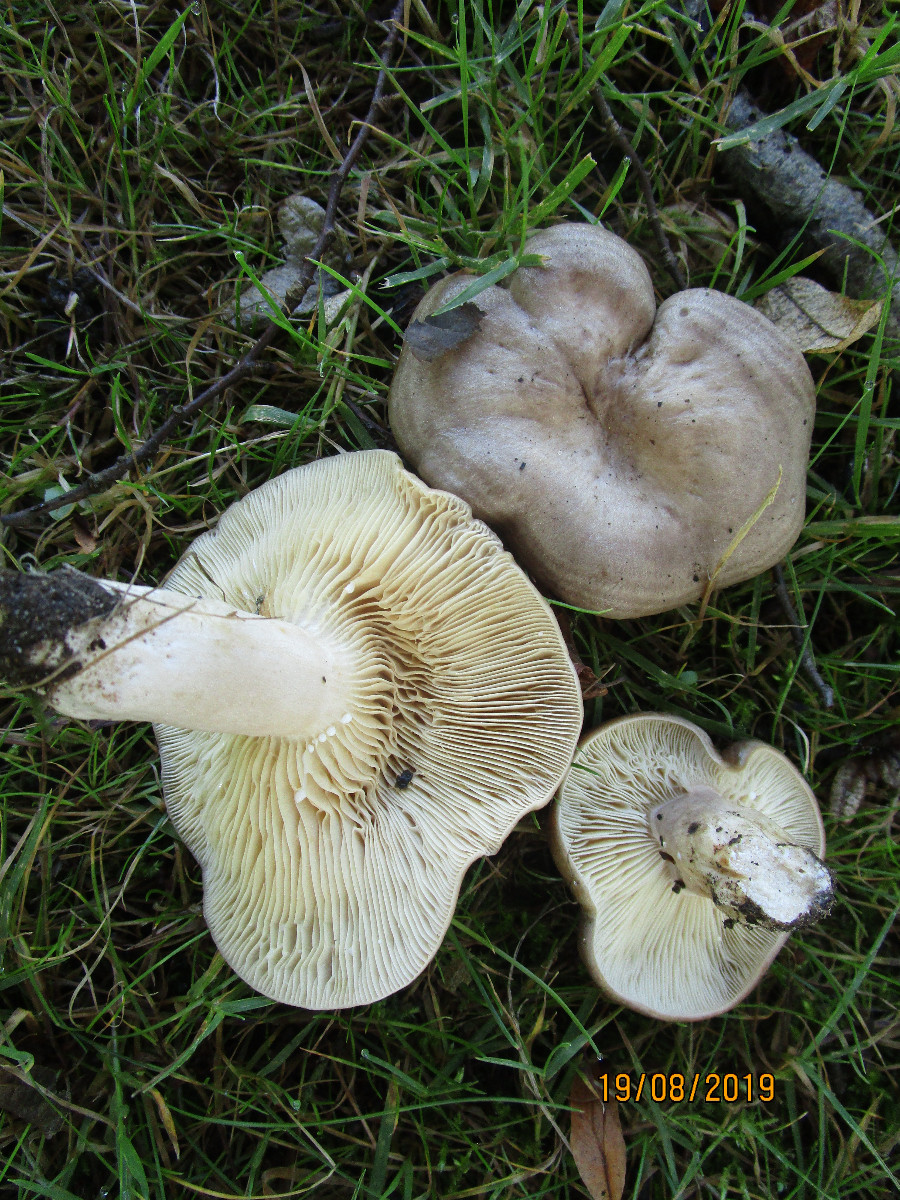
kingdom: Fungi
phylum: Basidiomycota
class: Agaricomycetes
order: Russulales
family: Russulaceae
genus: Lactarius
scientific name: Lactarius circellatus
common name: avnbøg-mælkehat
